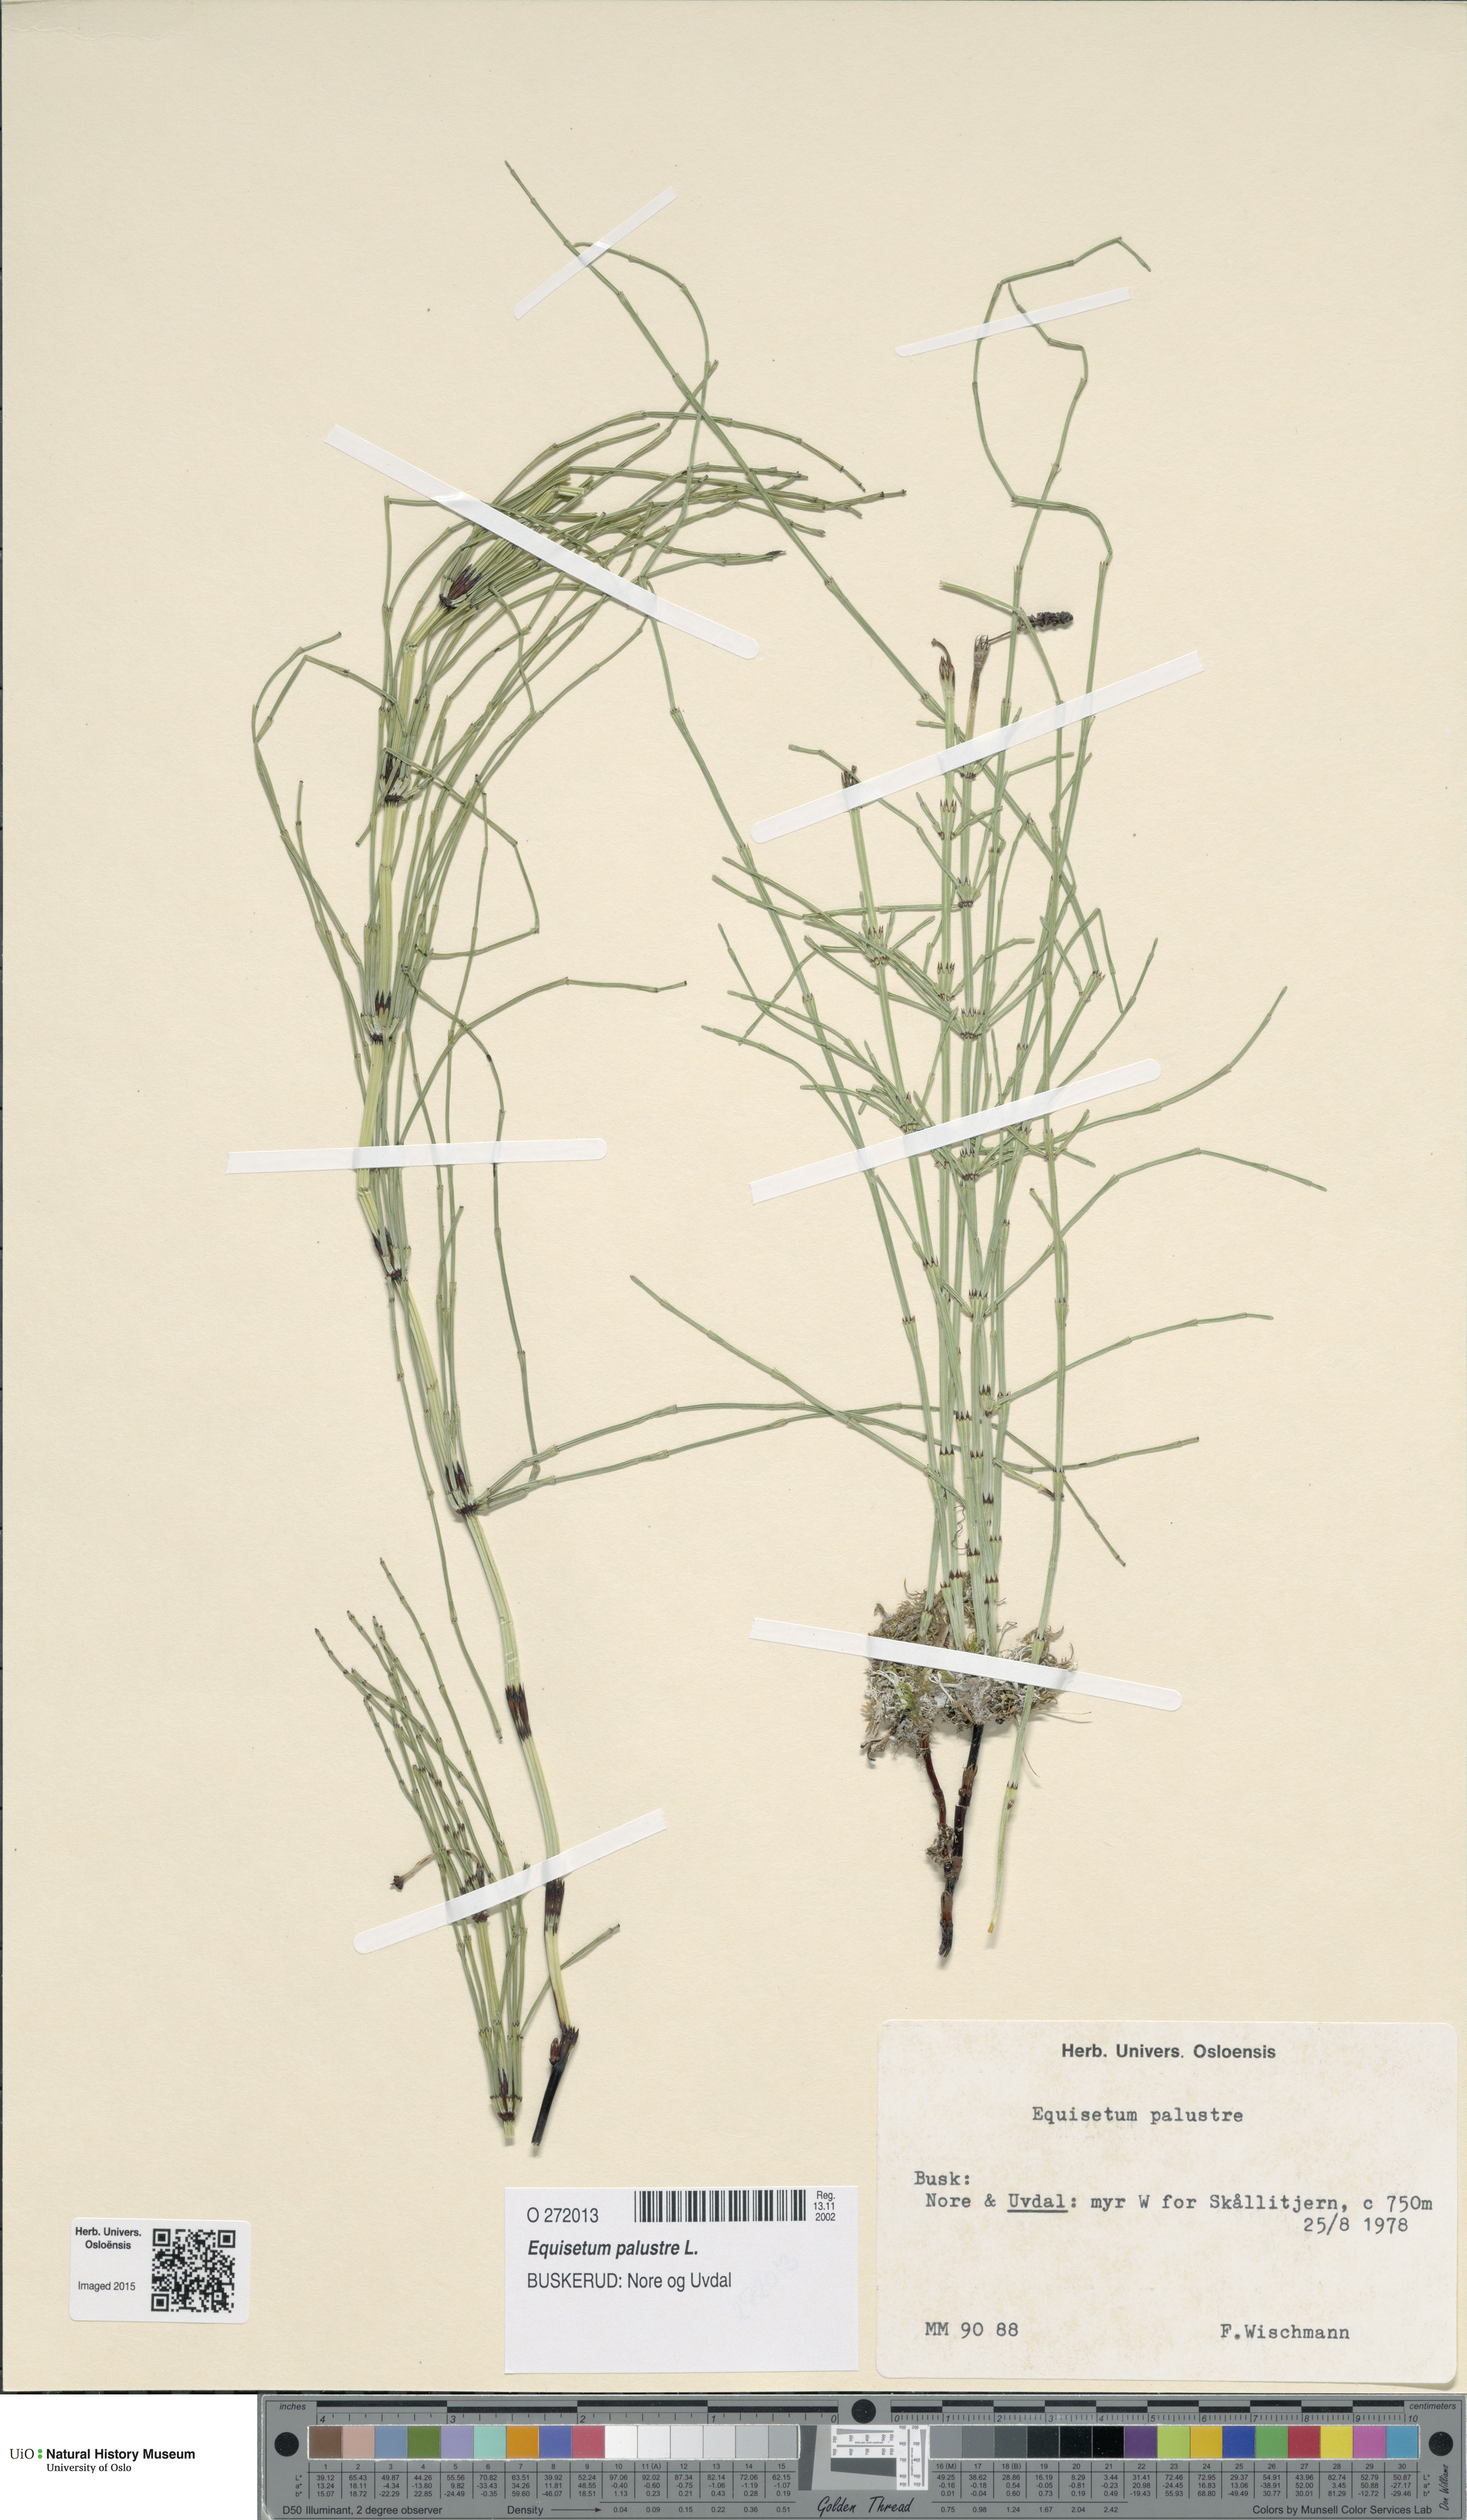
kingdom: Plantae
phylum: Tracheophyta
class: Polypodiopsida
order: Equisetales
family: Equisetaceae
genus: Equisetum
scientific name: Equisetum palustre
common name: Marsh horsetail
